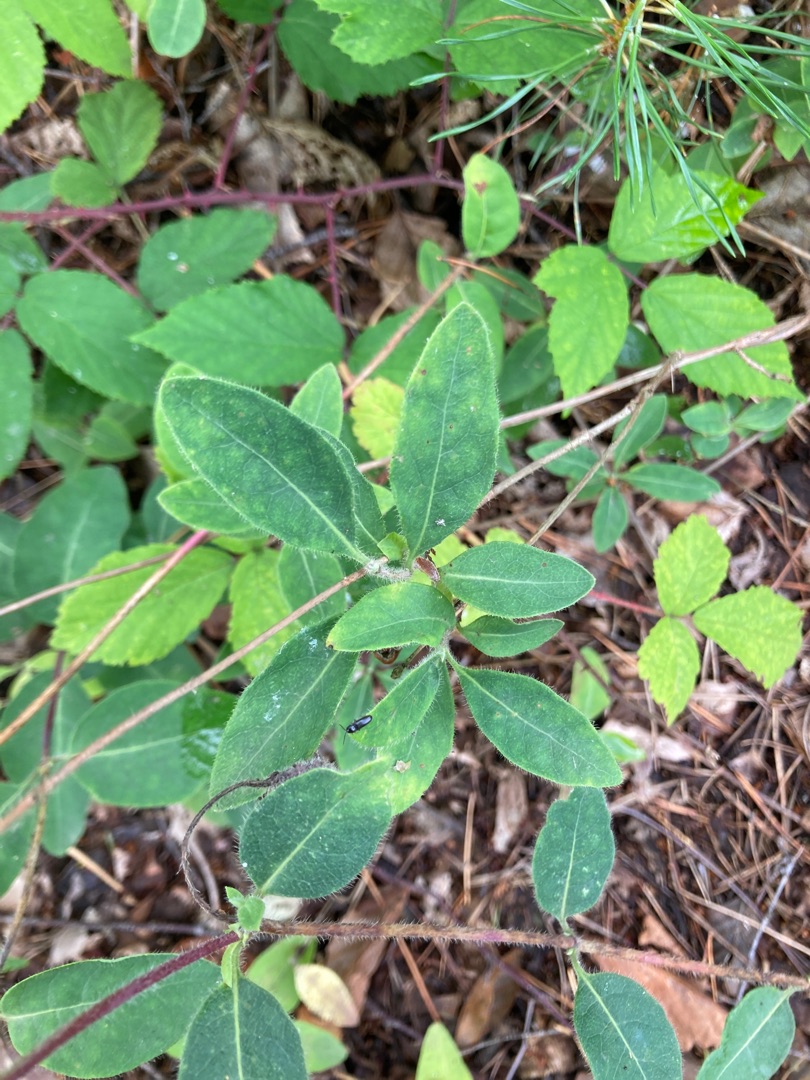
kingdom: Plantae
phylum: Tracheophyta
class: Magnoliopsida
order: Dipsacales
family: Caprifoliaceae
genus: Lonicera
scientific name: Lonicera periclymenum
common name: Almindelig gedeblad
